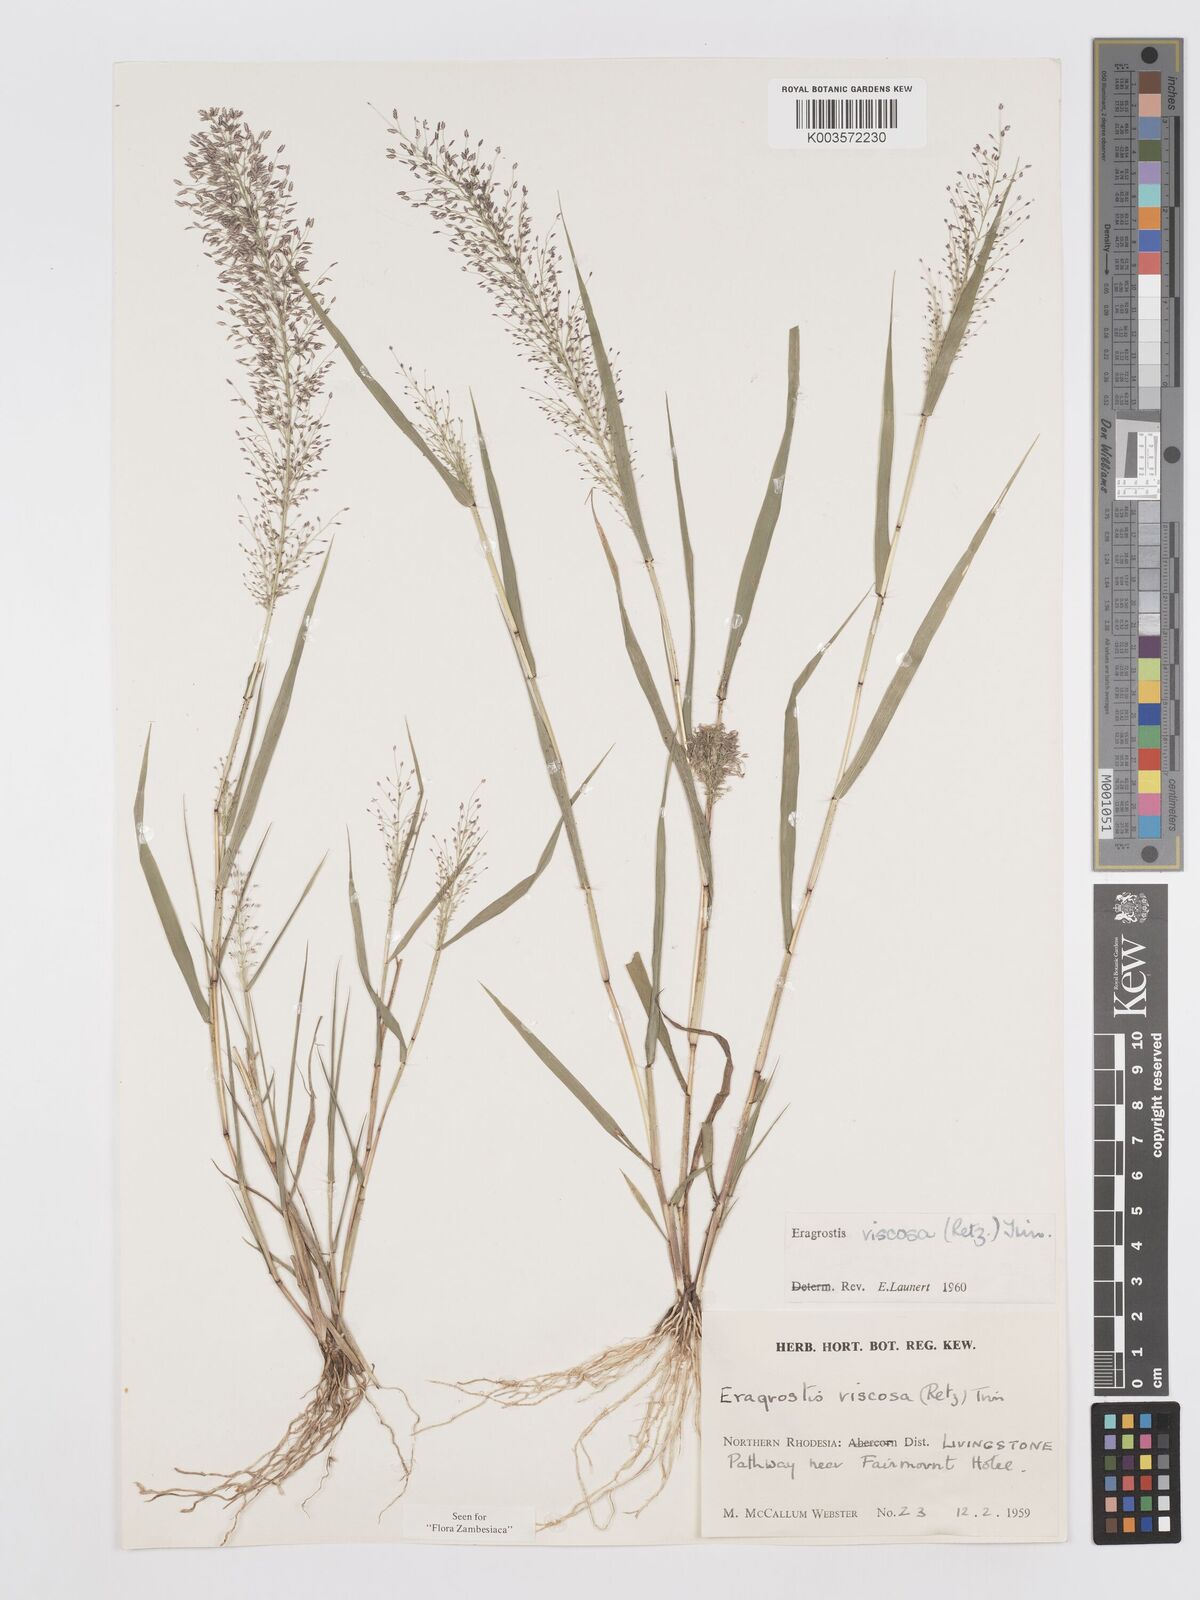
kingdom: Plantae
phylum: Tracheophyta
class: Liliopsida
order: Poales
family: Poaceae
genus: Eragrostis
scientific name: Eragrostis
